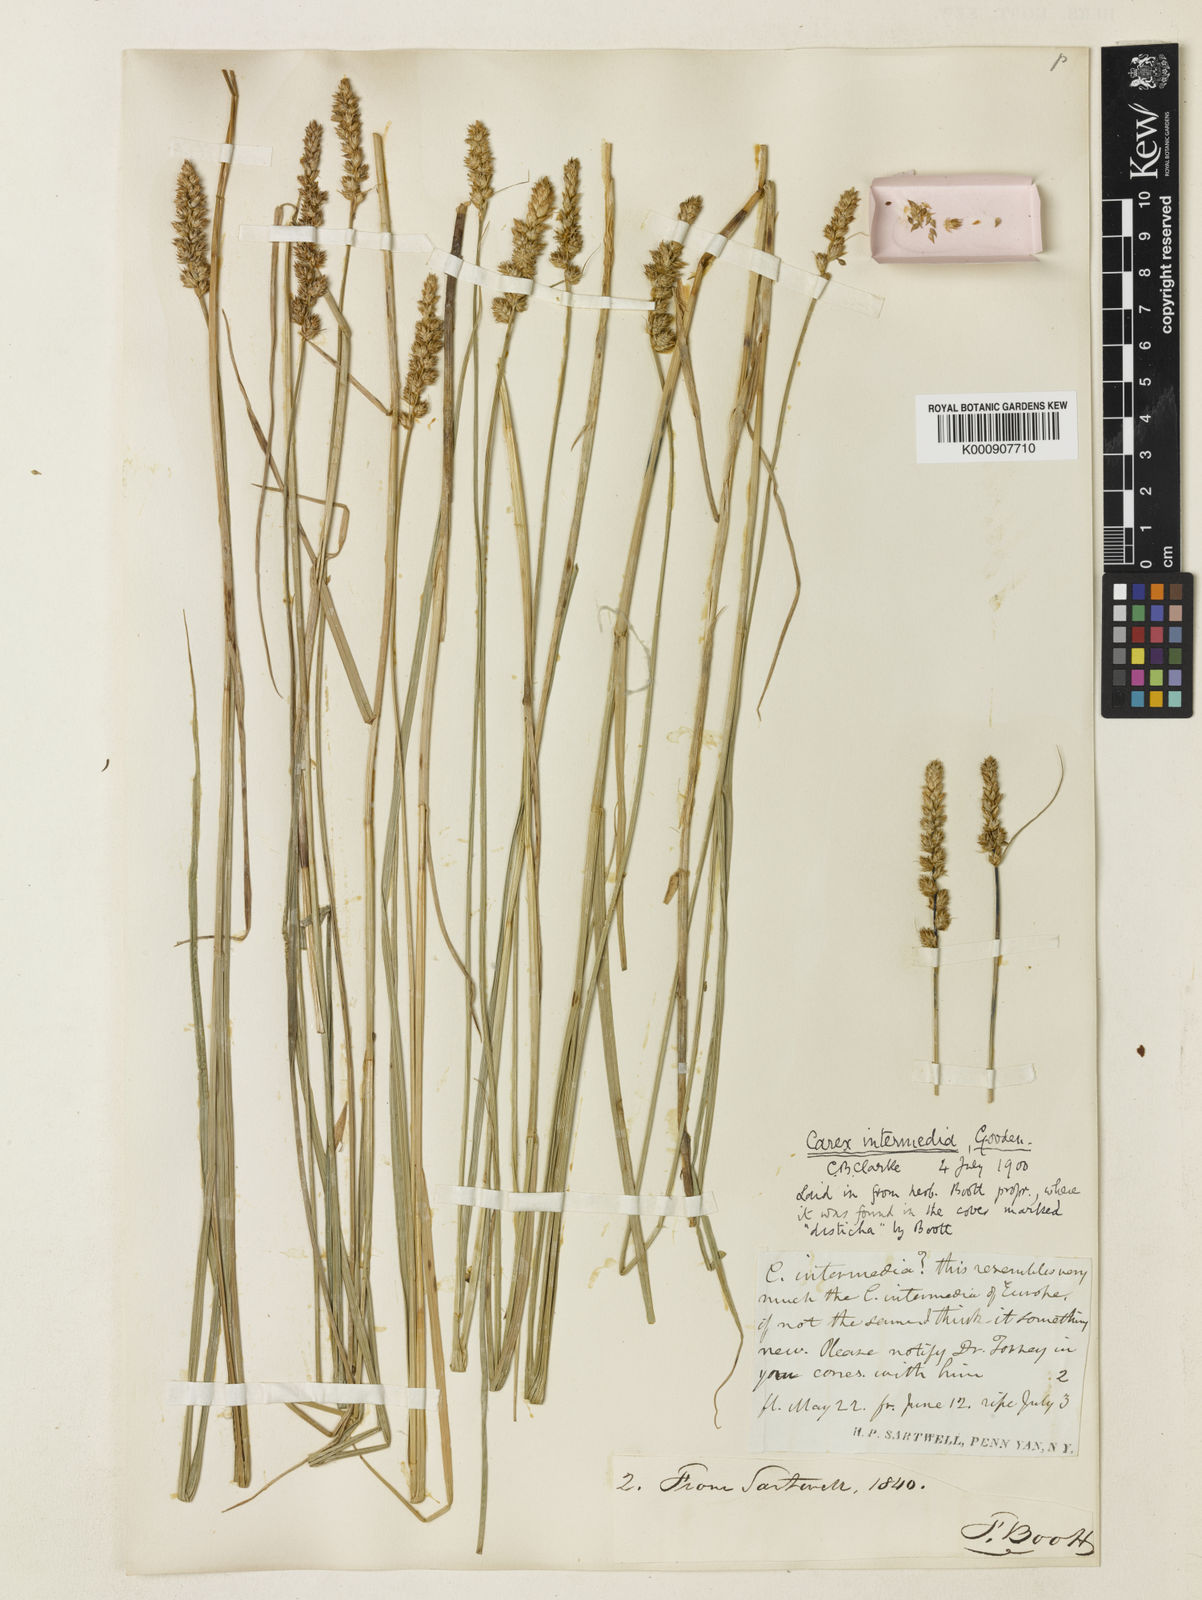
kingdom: Plantae
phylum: Tracheophyta
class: Liliopsida
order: Poales
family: Cyperaceae
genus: Carex
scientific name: Carex sartwellii
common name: Sartwell's sedge
